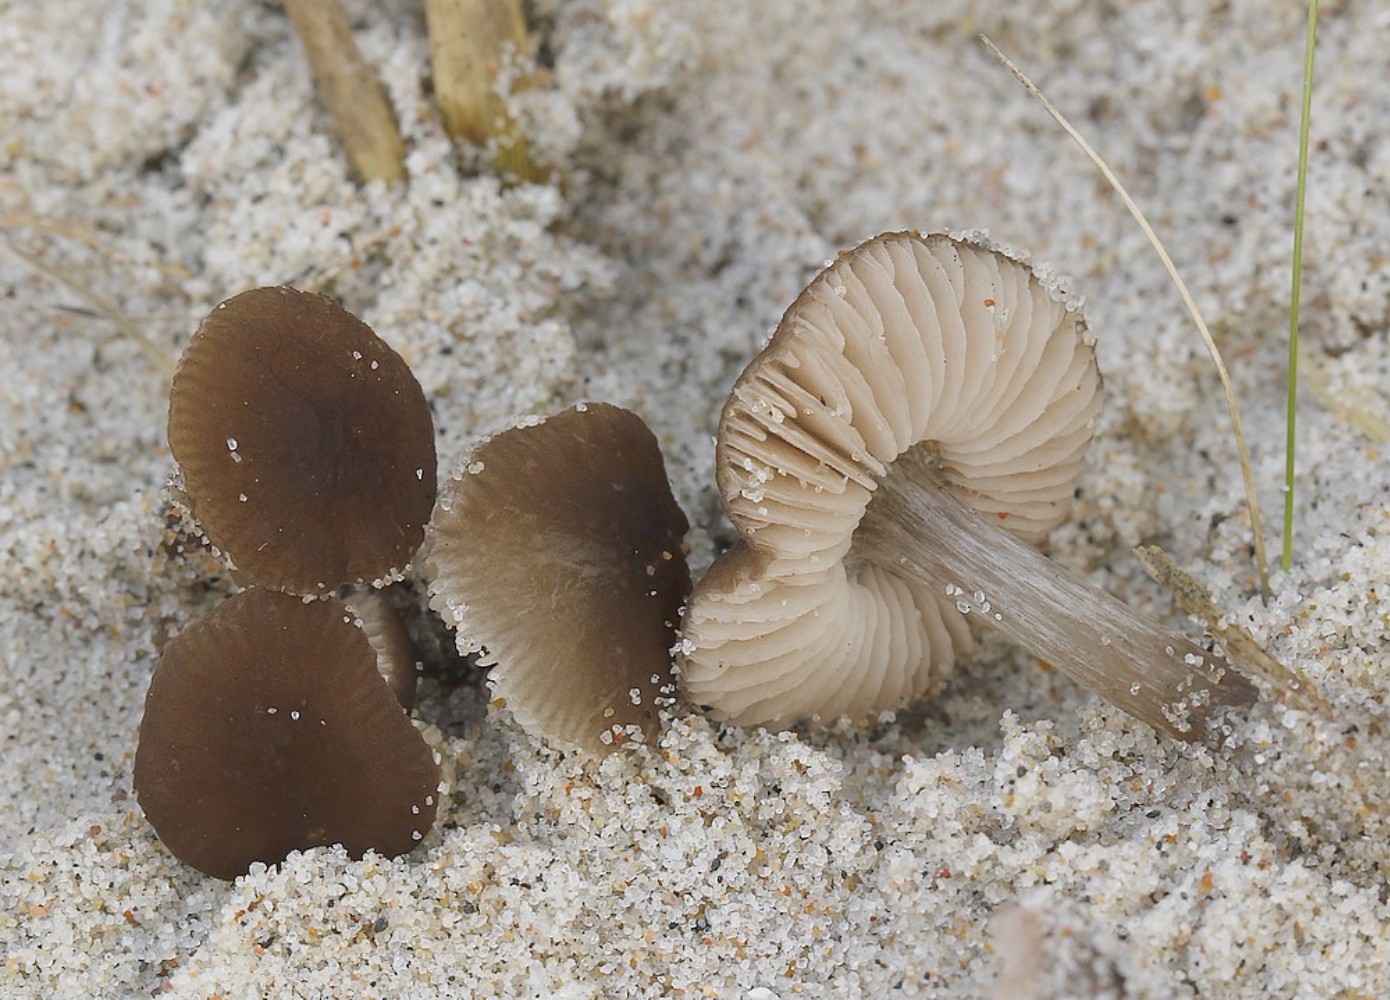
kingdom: Fungi
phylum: Basidiomycota
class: Agaricomycetes
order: Agaricales
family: Pluteaceae
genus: Pluteus
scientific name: Pluteus
